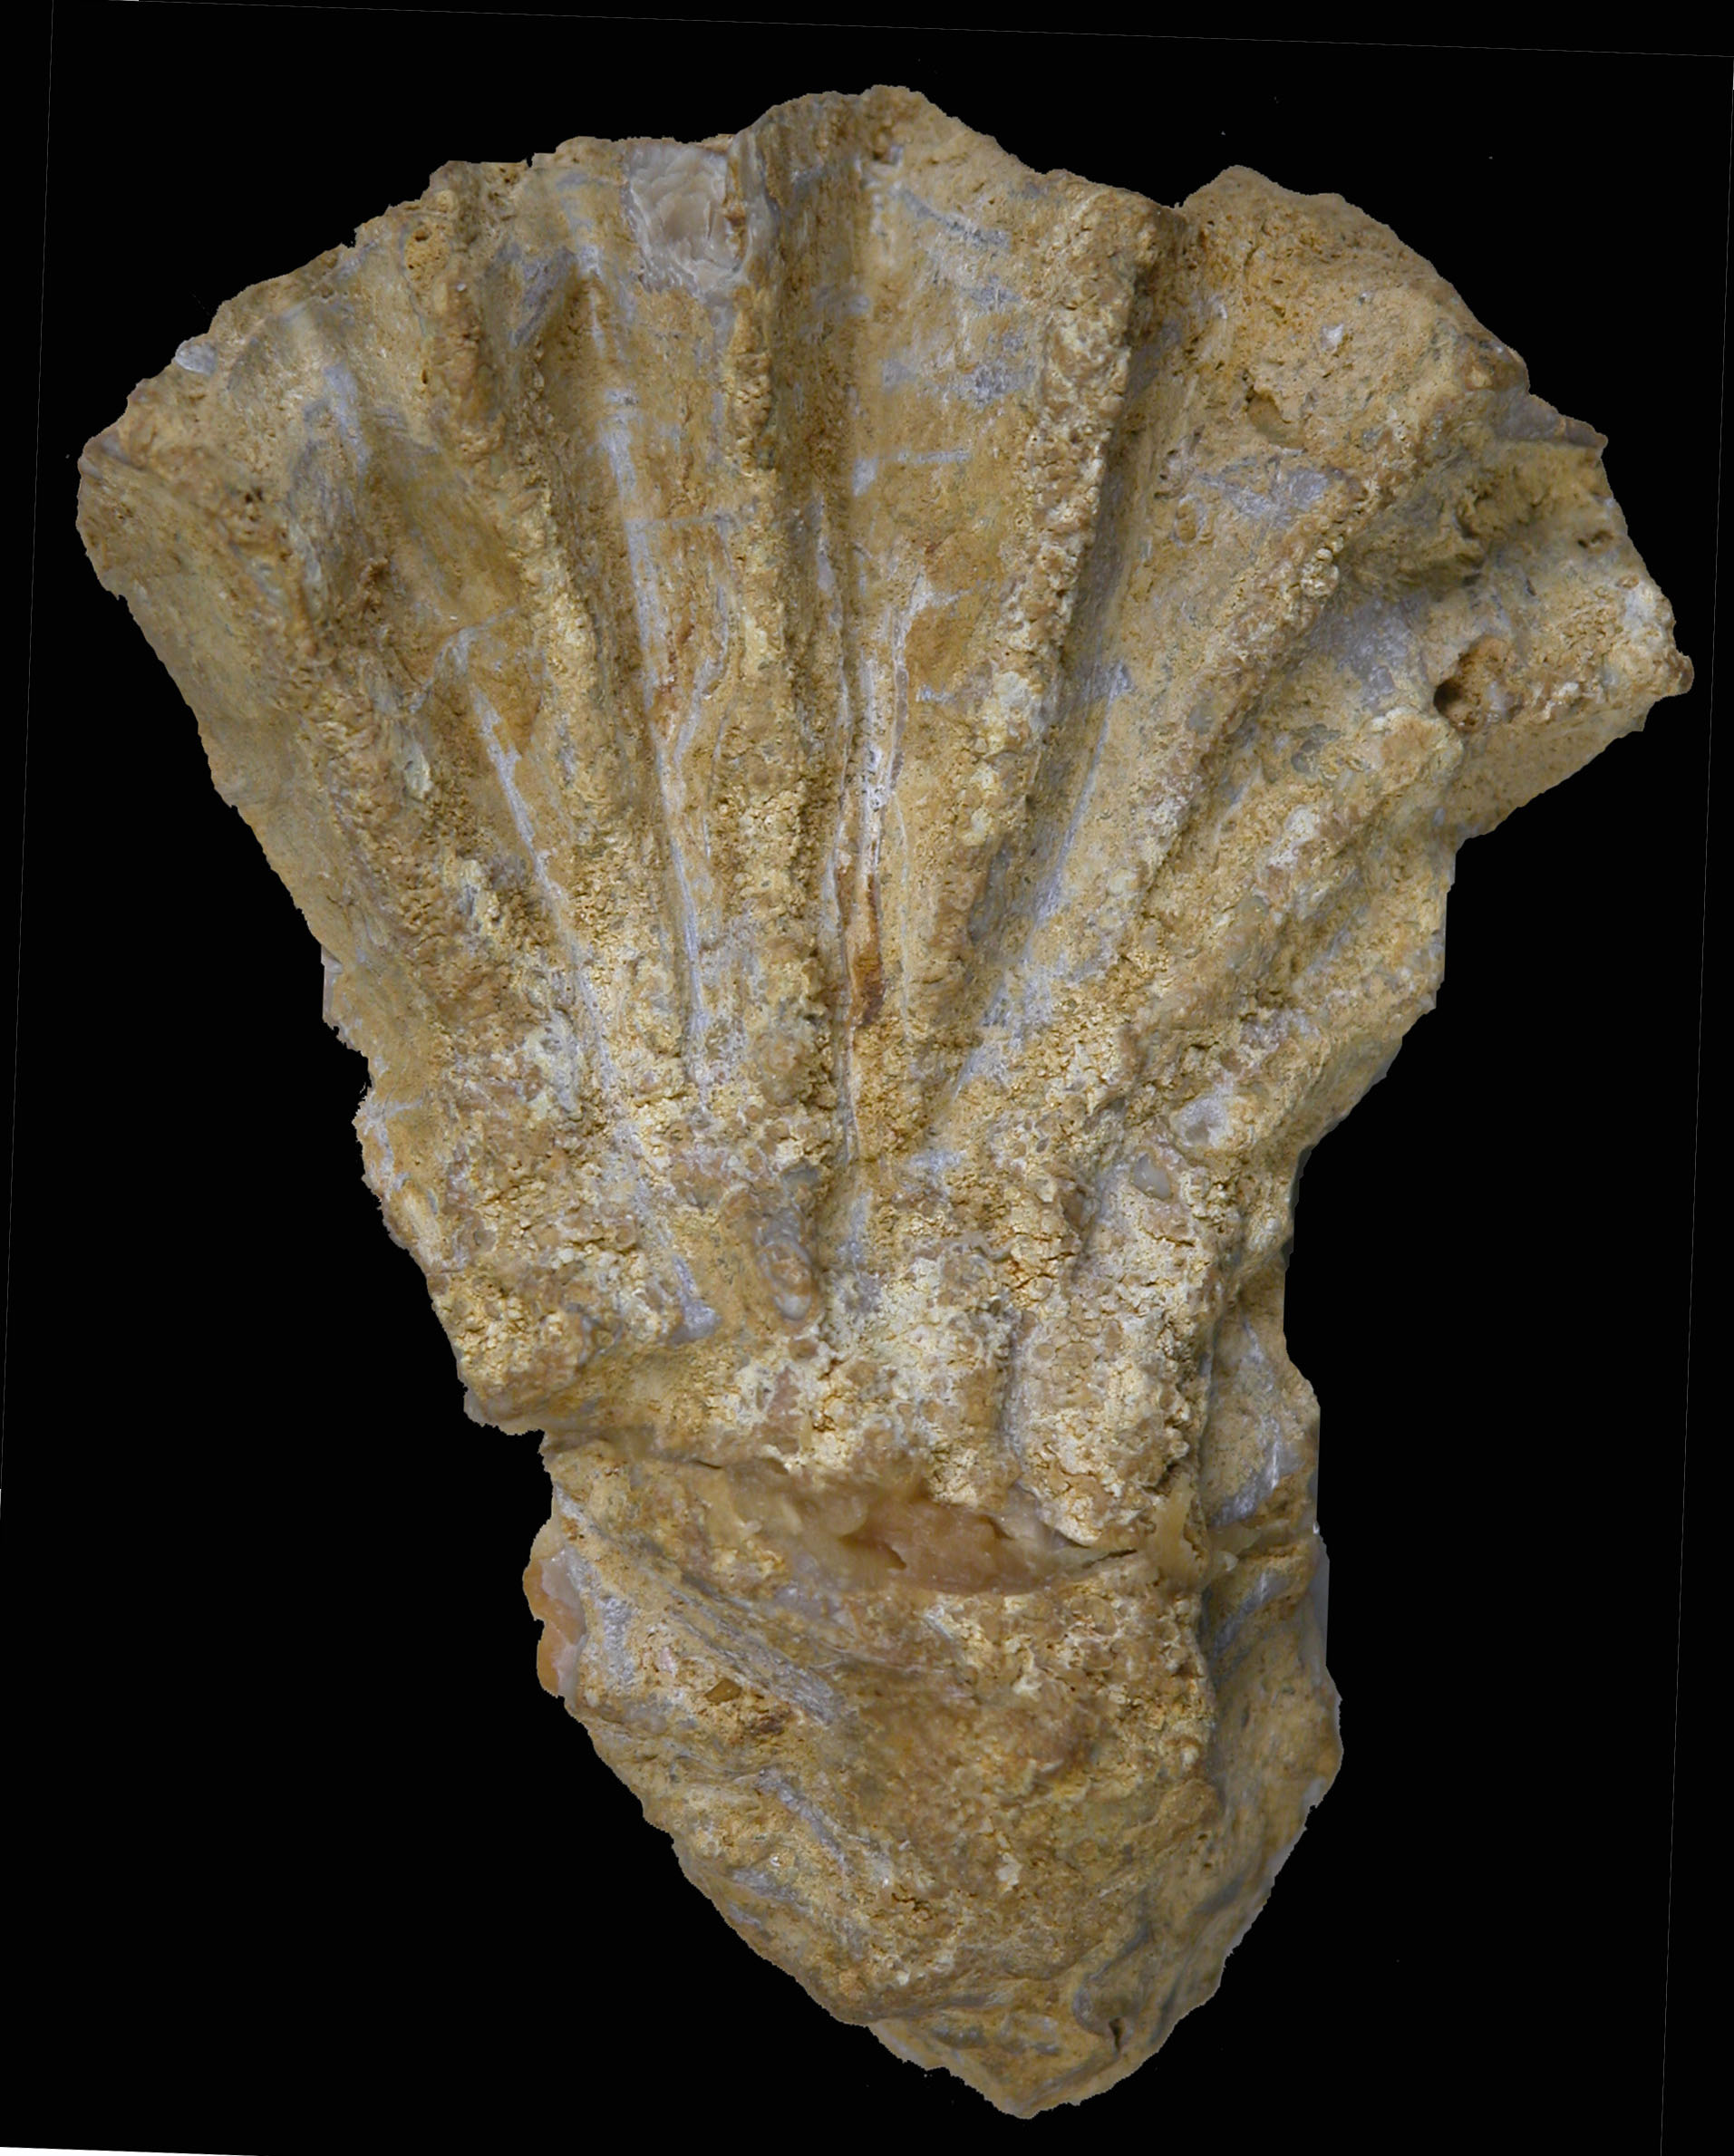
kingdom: Animalia
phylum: Mollusca
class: Bivalvia
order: Ostreida
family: Ostreidae
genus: Ostrea
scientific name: Ostrea marshii
